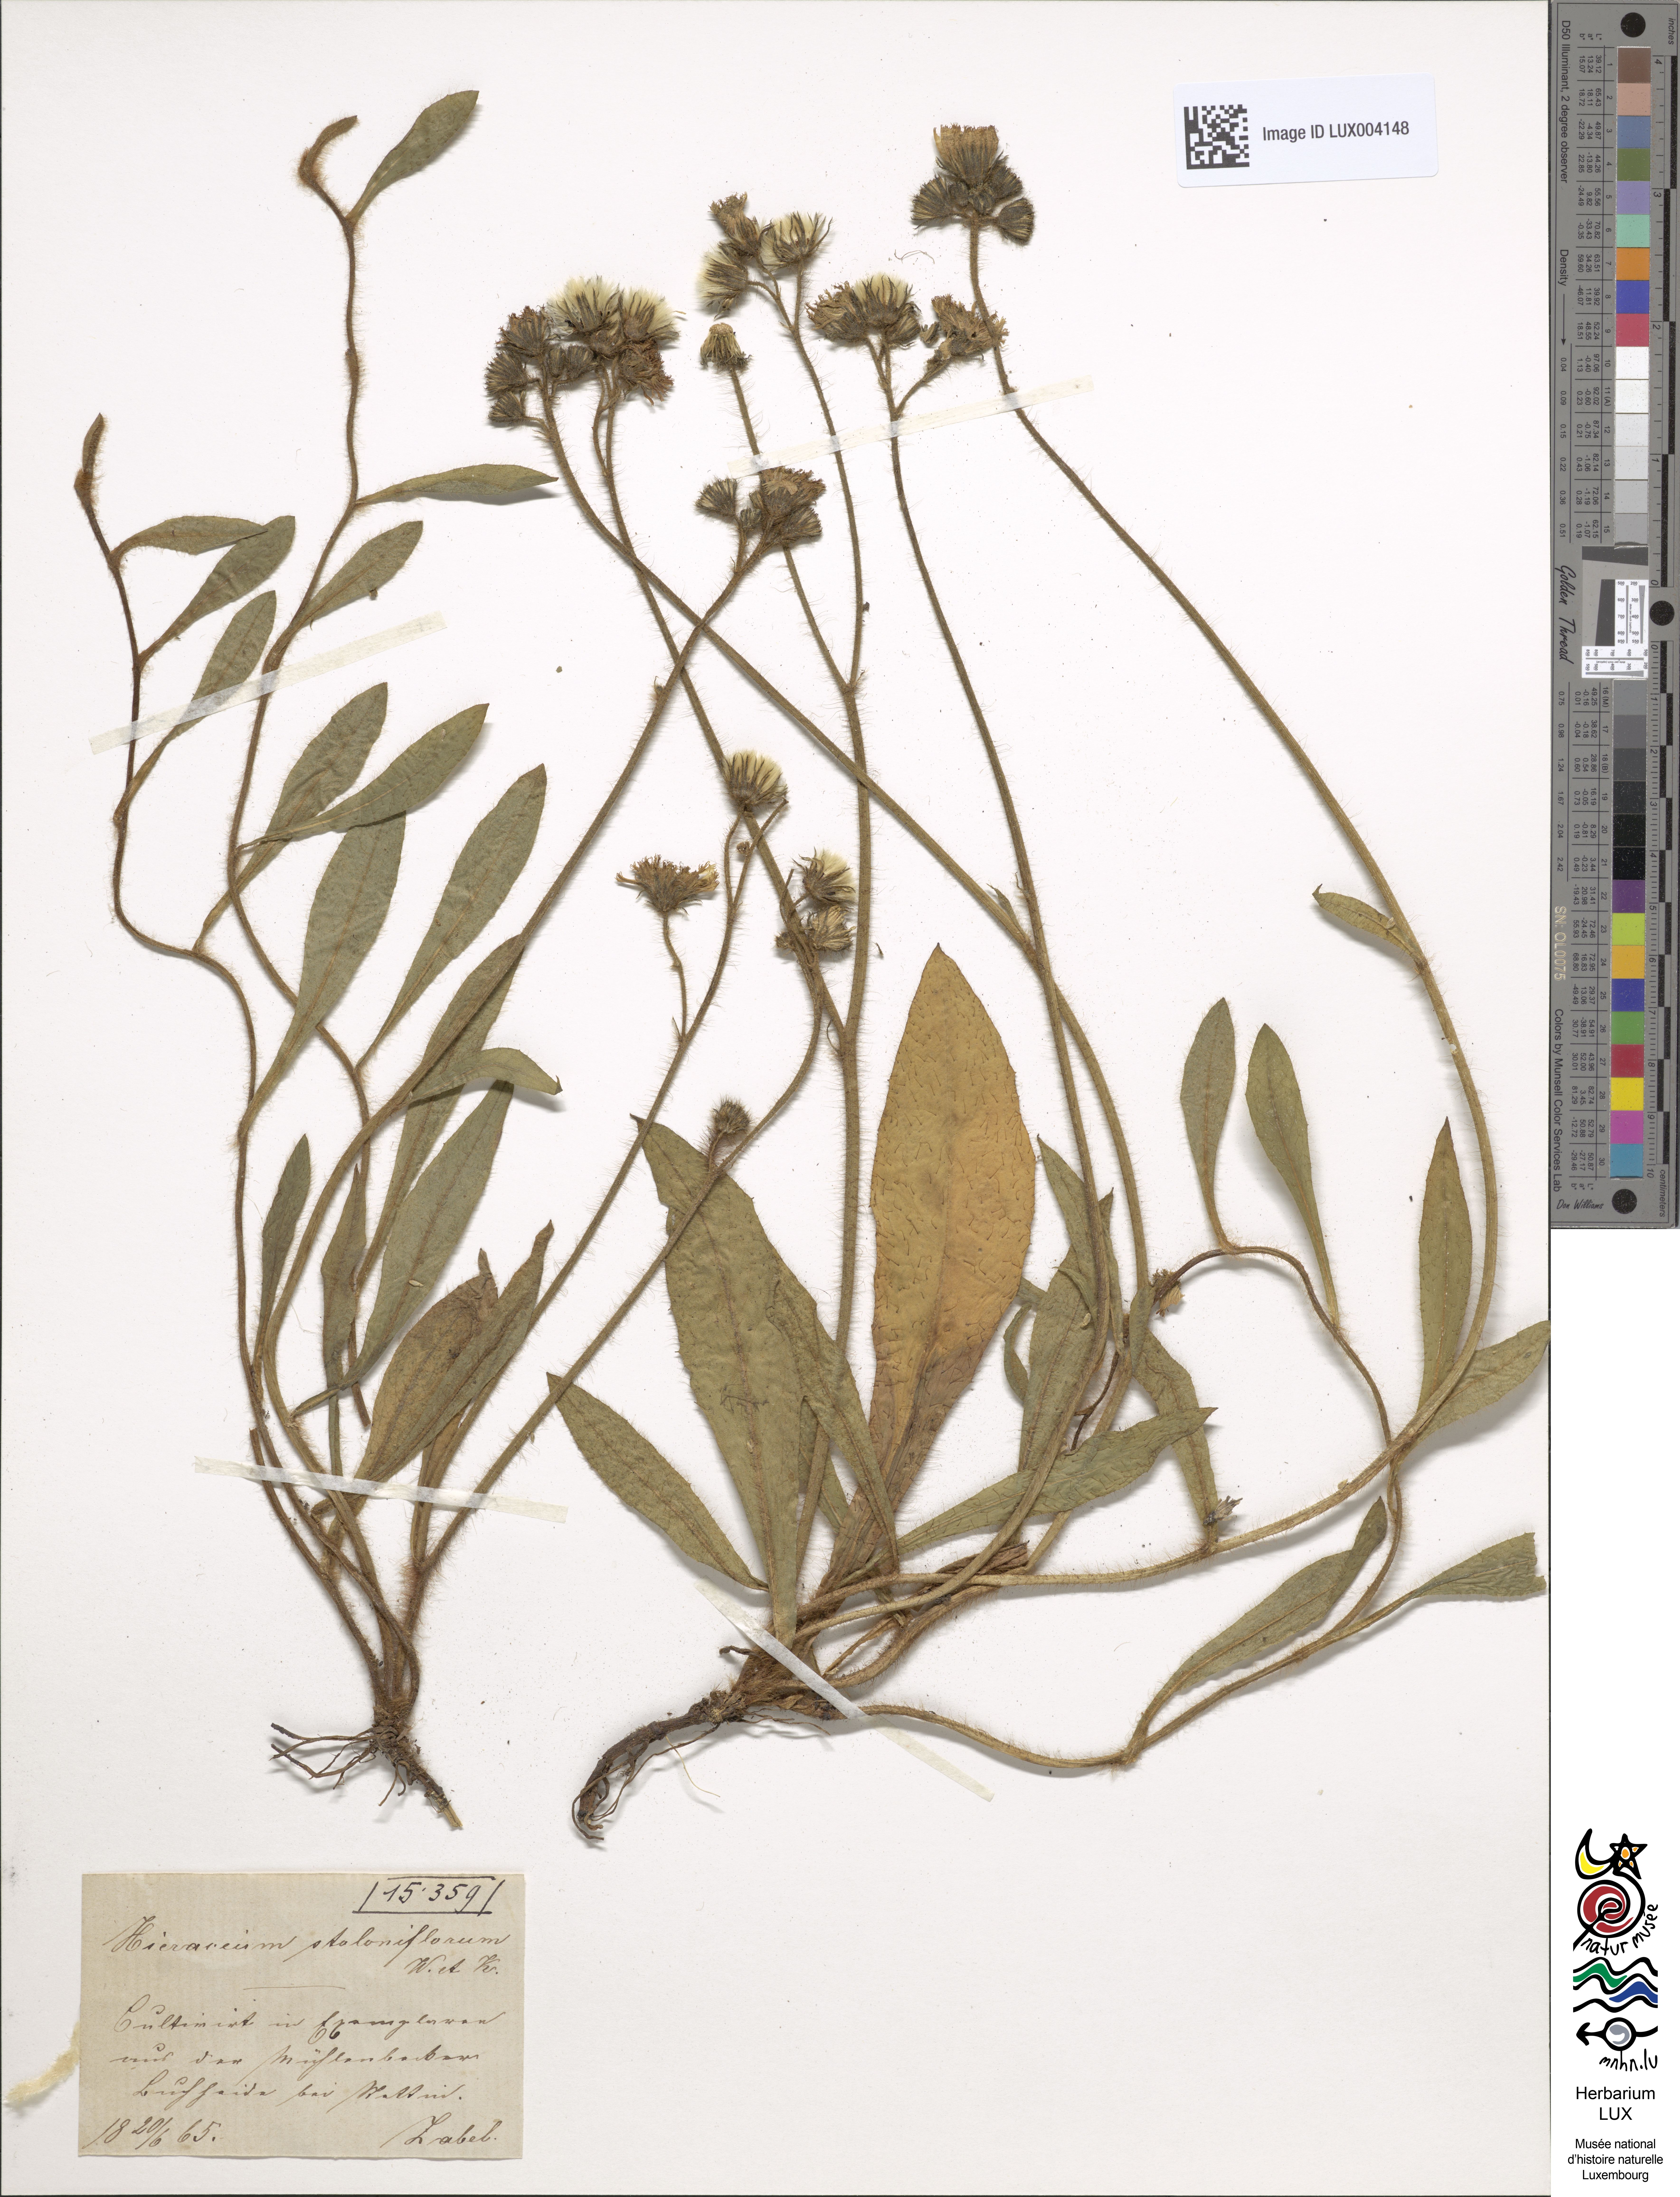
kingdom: Plantae
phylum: Tracheophyta
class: Magnoliopsida
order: Asterales
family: Asteraceae
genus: Pilosella
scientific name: Pilosella stoloniflora
